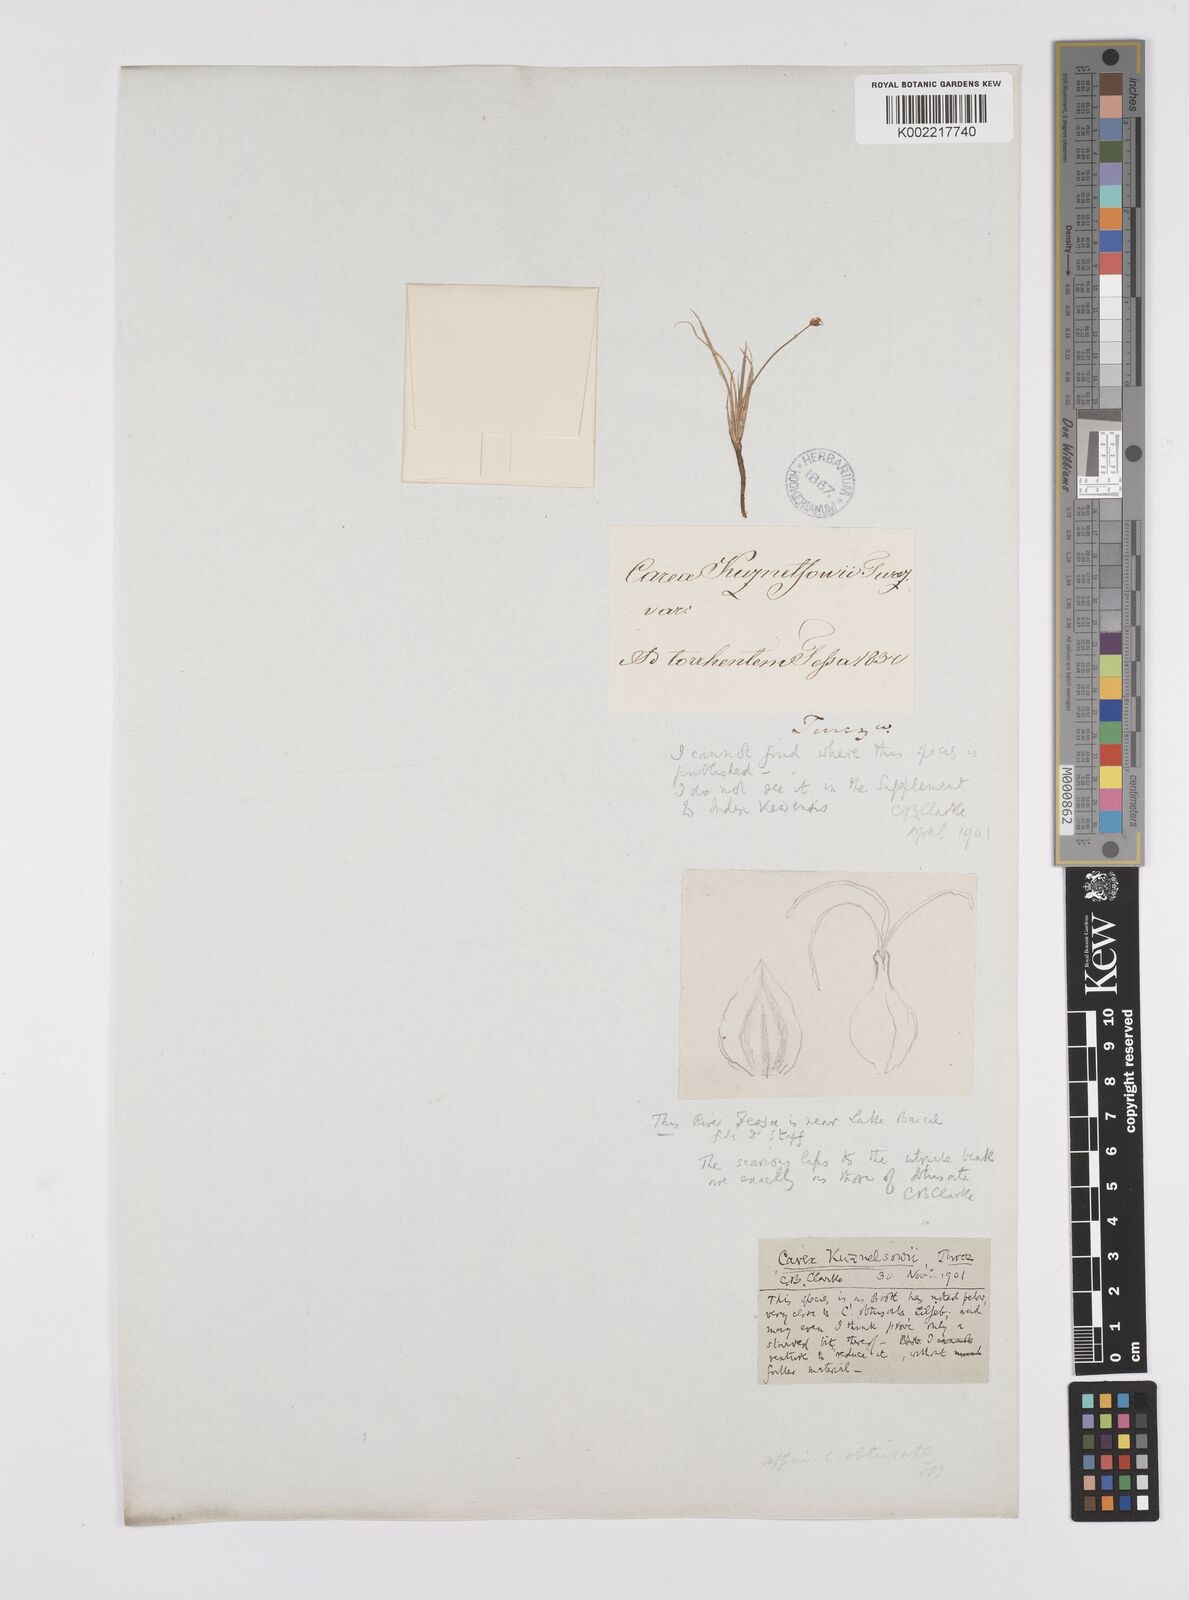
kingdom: Plantae
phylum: Tracheophyta
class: Liliopsida
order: Poales
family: Cyperaceae
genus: Carex
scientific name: Carex
